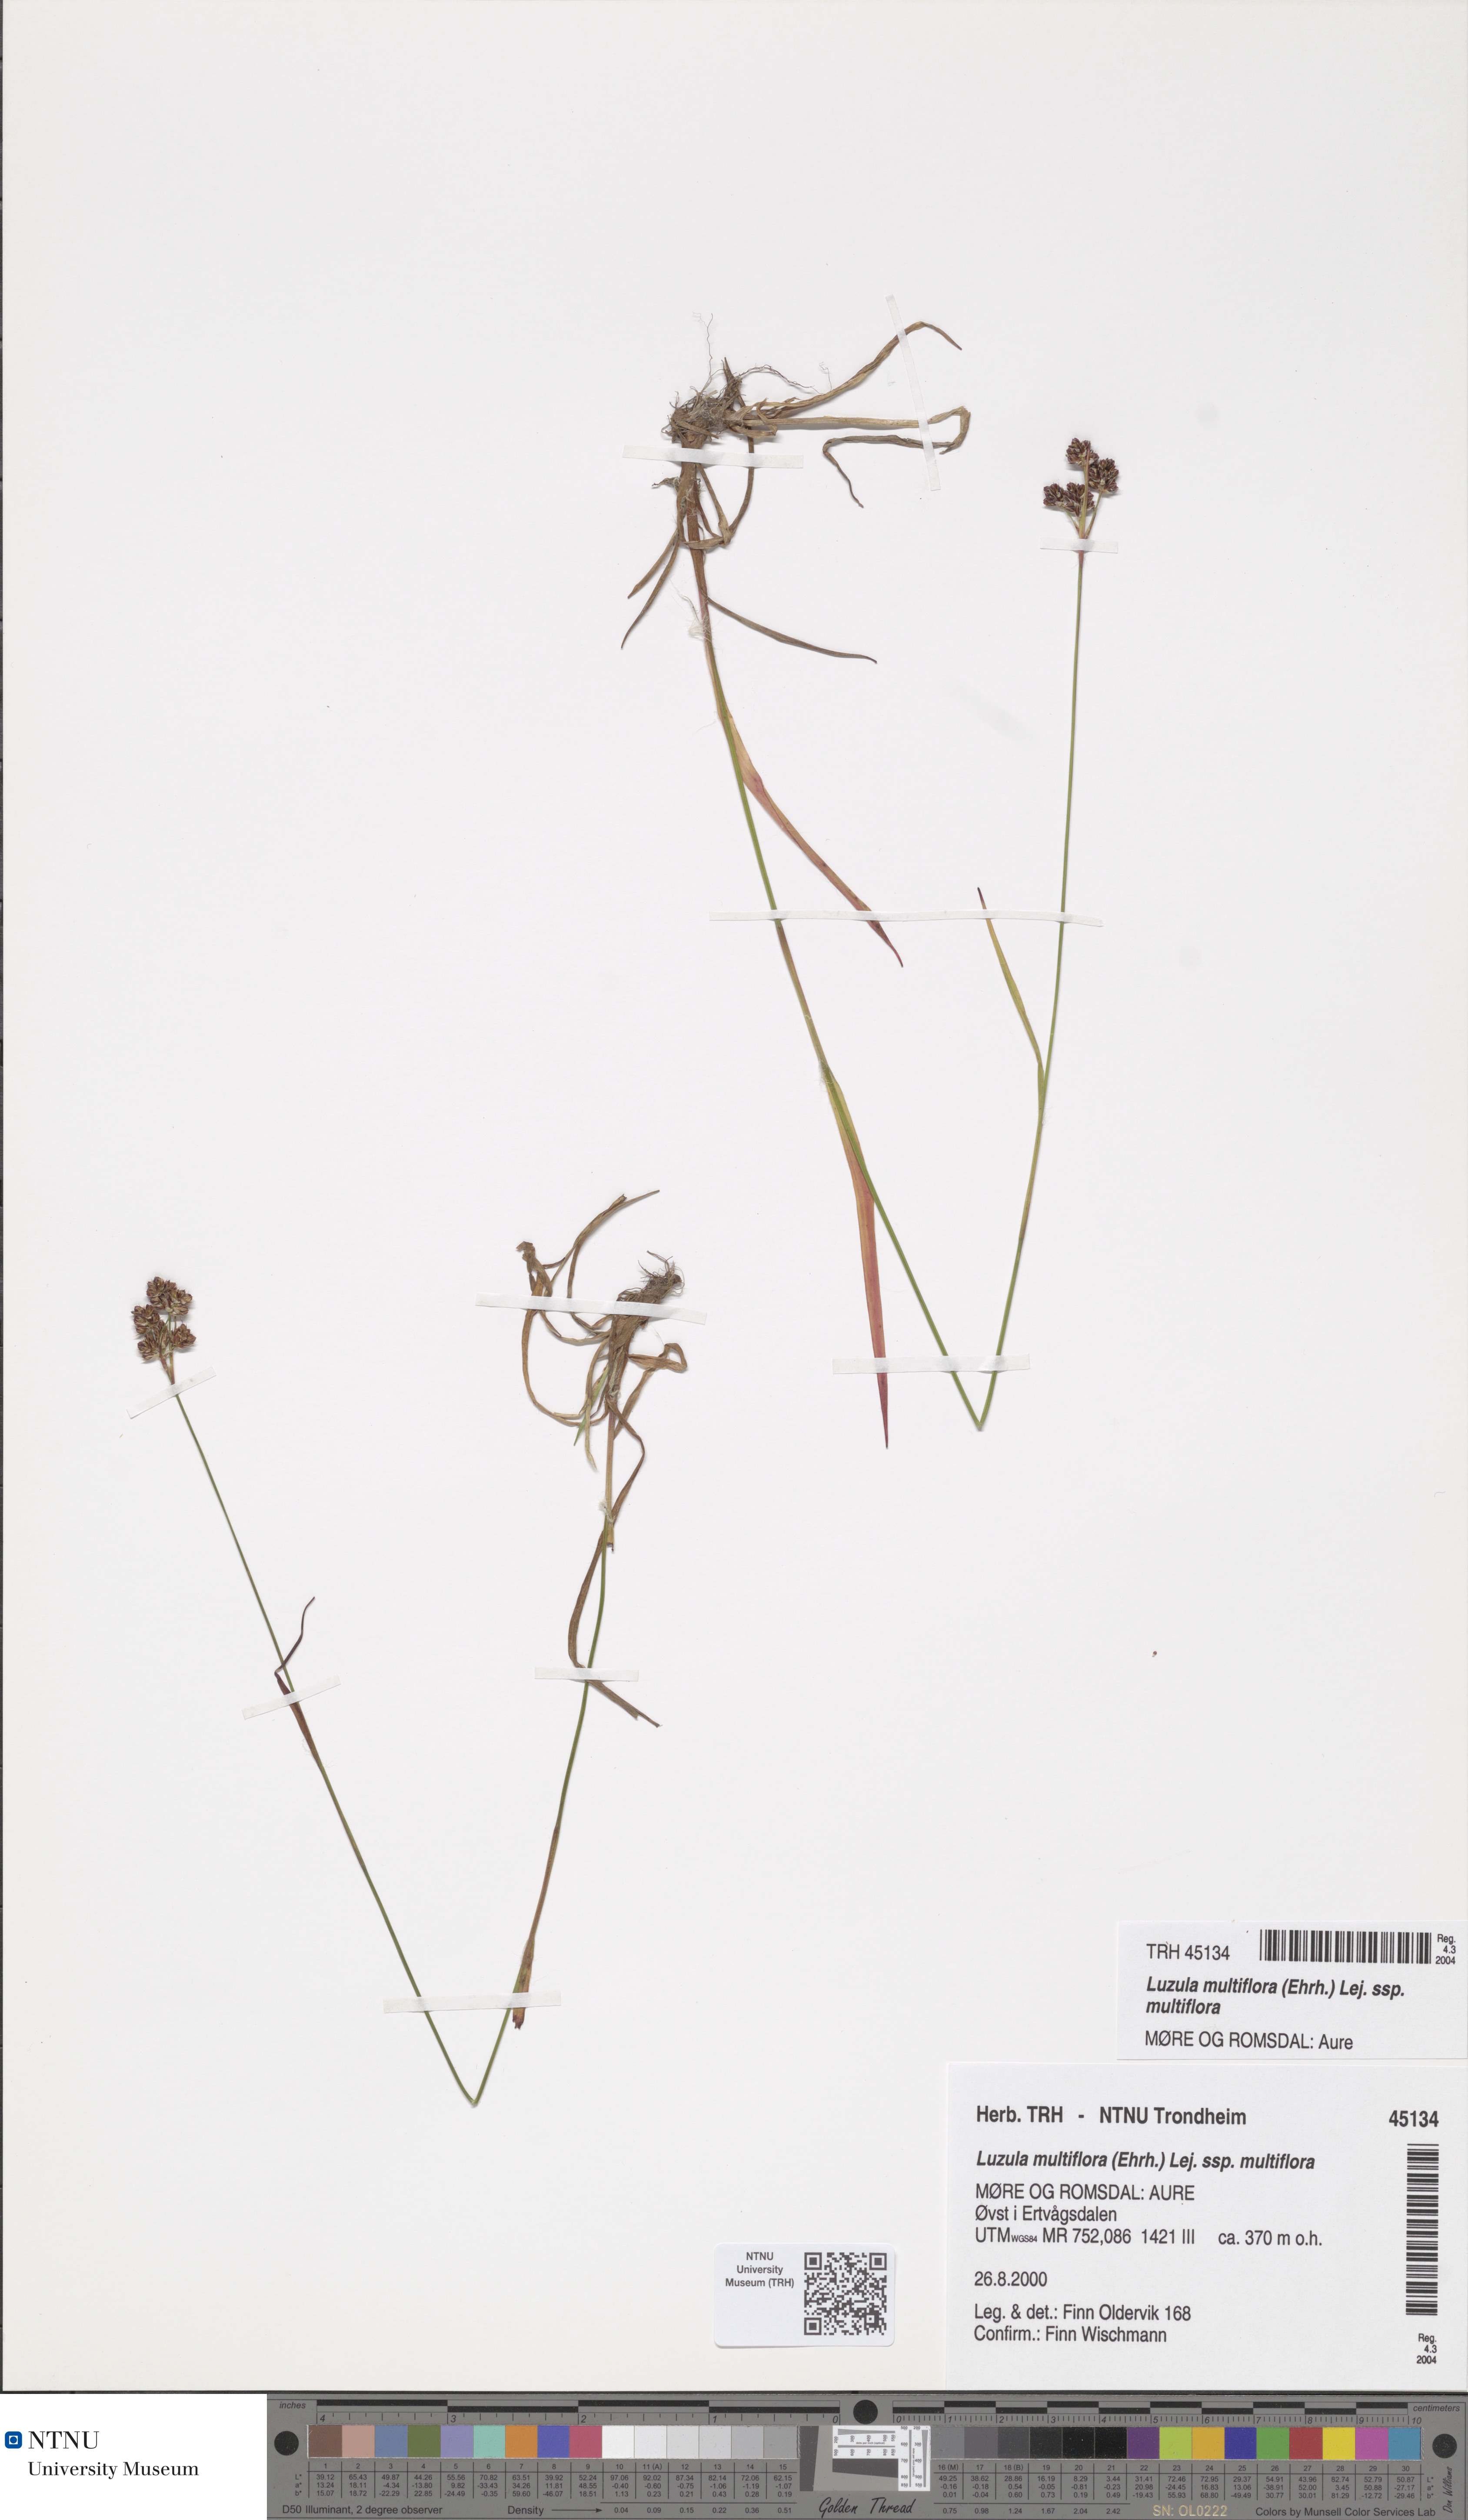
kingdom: Plantae
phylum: Tracheophyta
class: Liliopsida
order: Poales
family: Juncaceae
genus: Luzula
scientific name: Luzula multiflora
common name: Heath wood-rush
